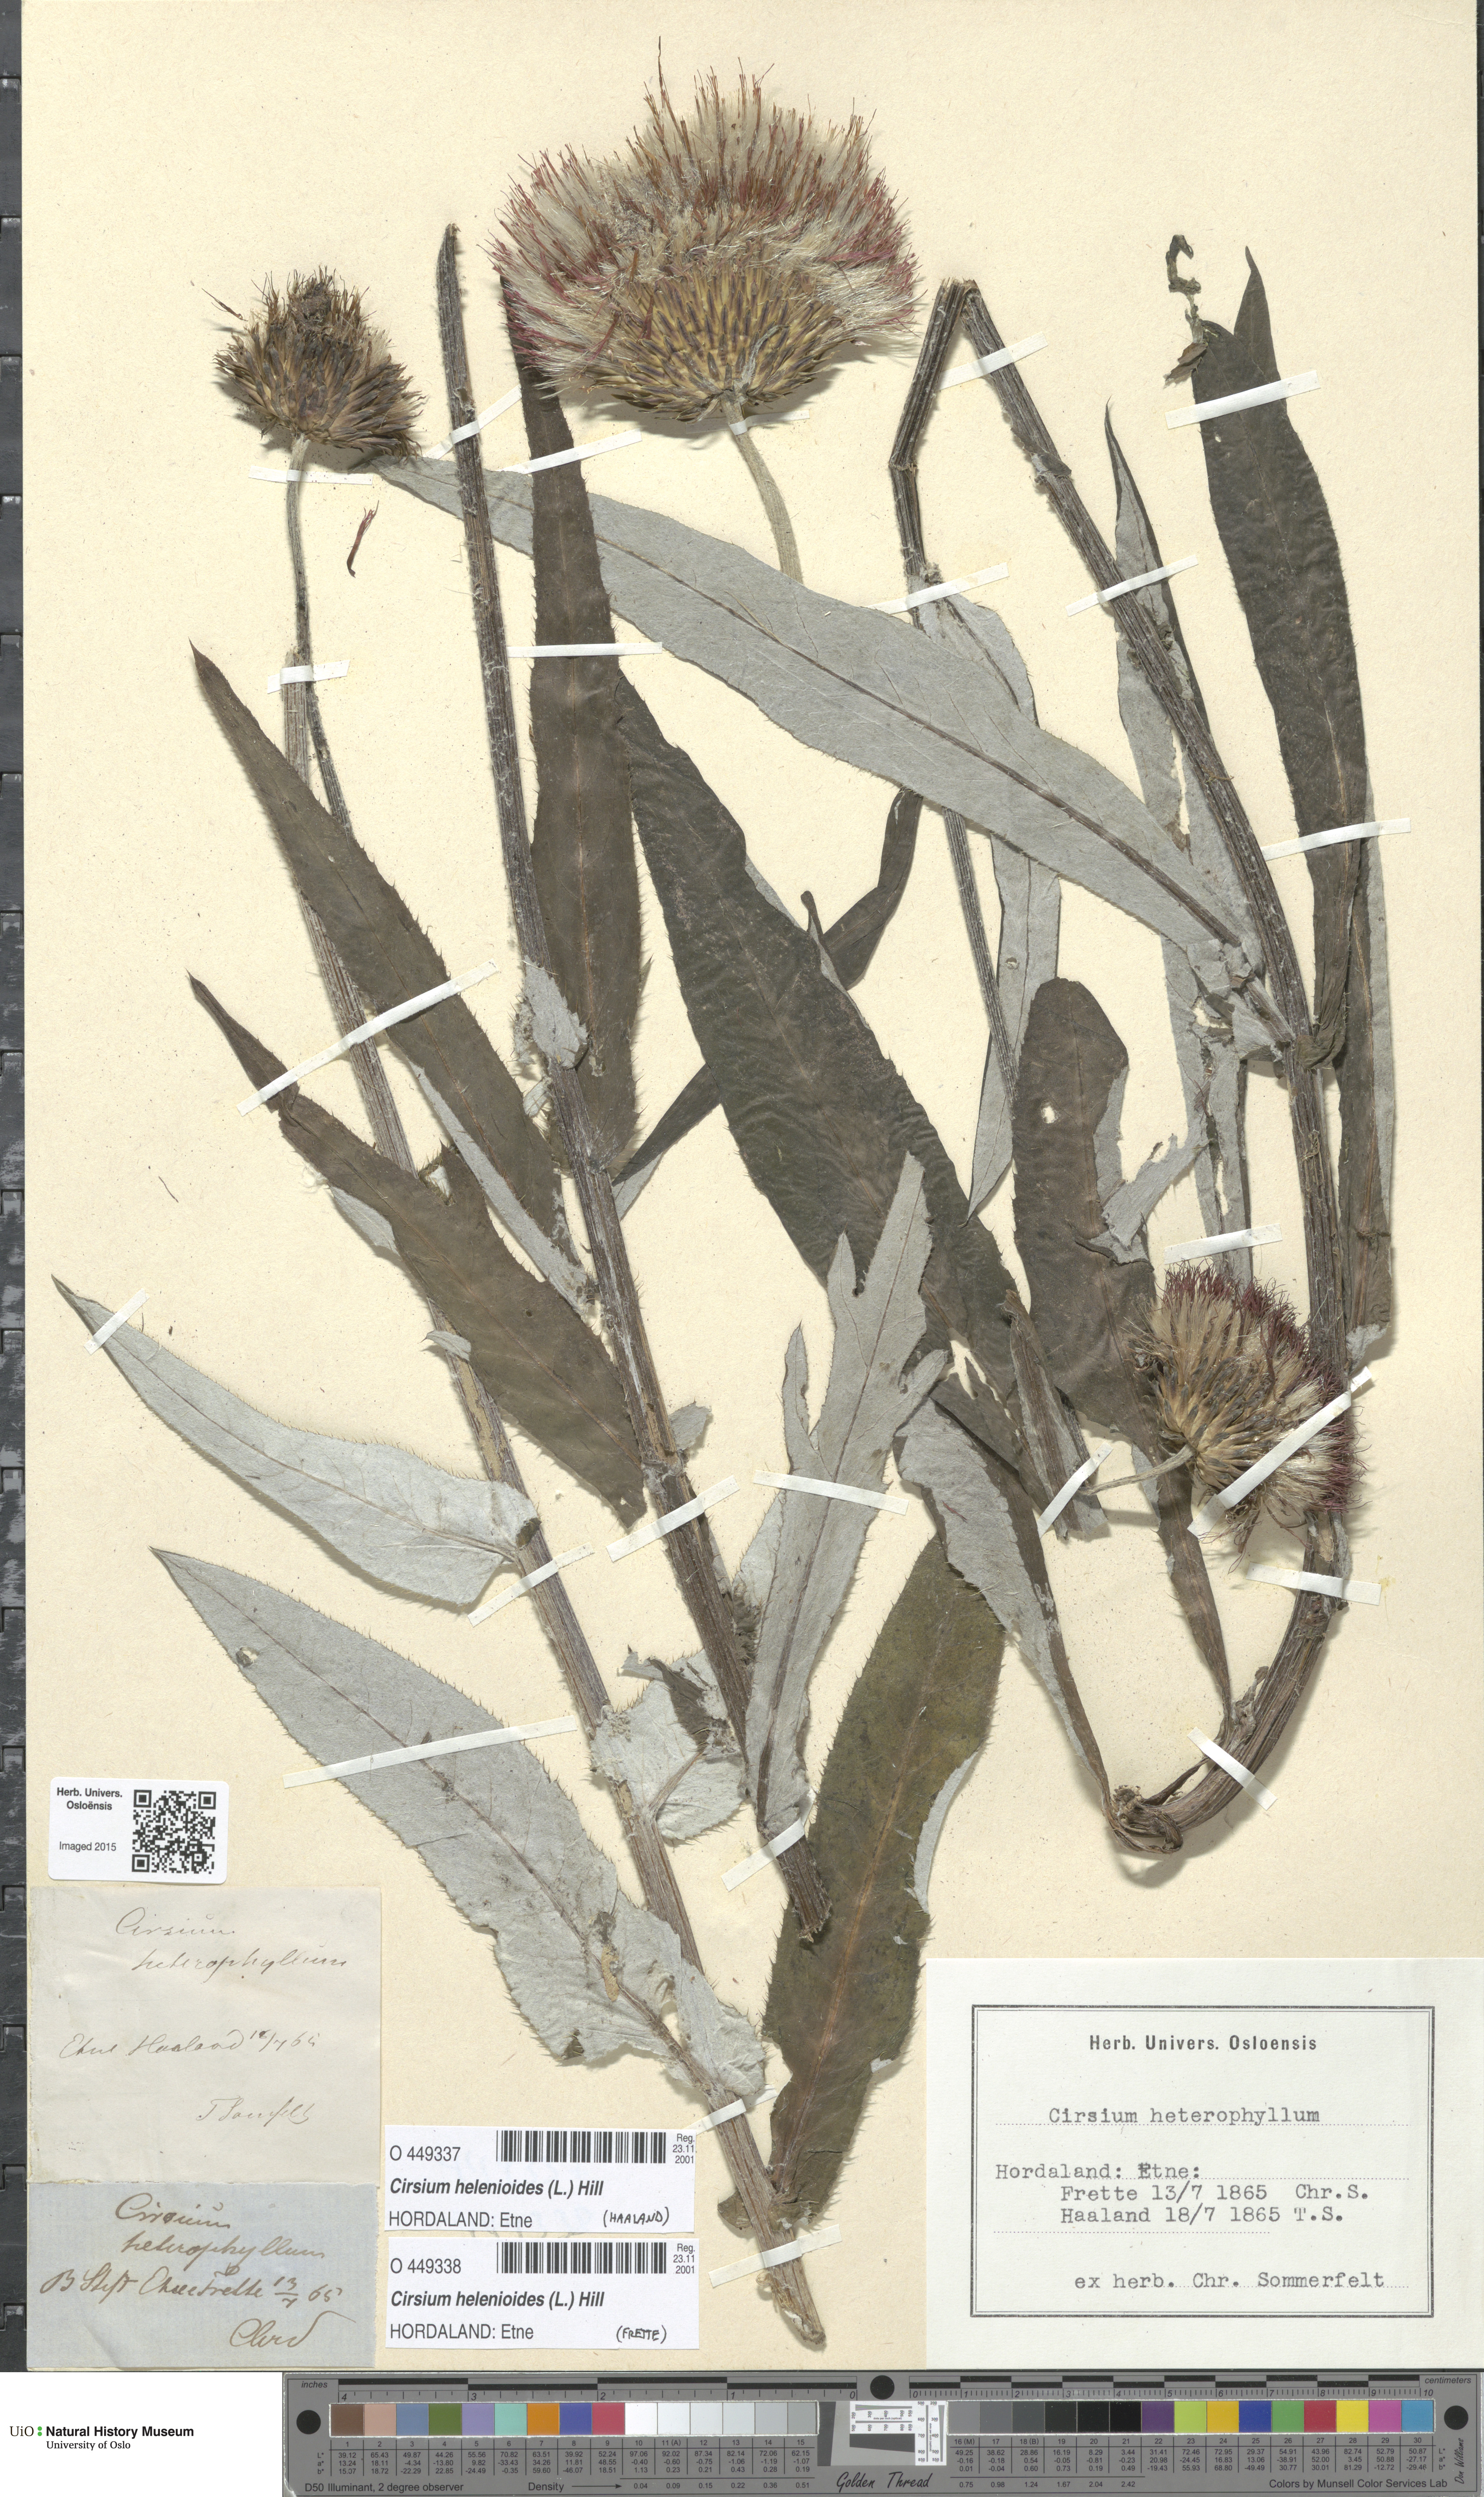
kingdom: Plantae
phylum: Tracheophyta
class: Magnoliopsida
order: Asterales
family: Asteraceae
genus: Cirsium
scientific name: Cirsium heterophyllum
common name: Melancholy thistle
